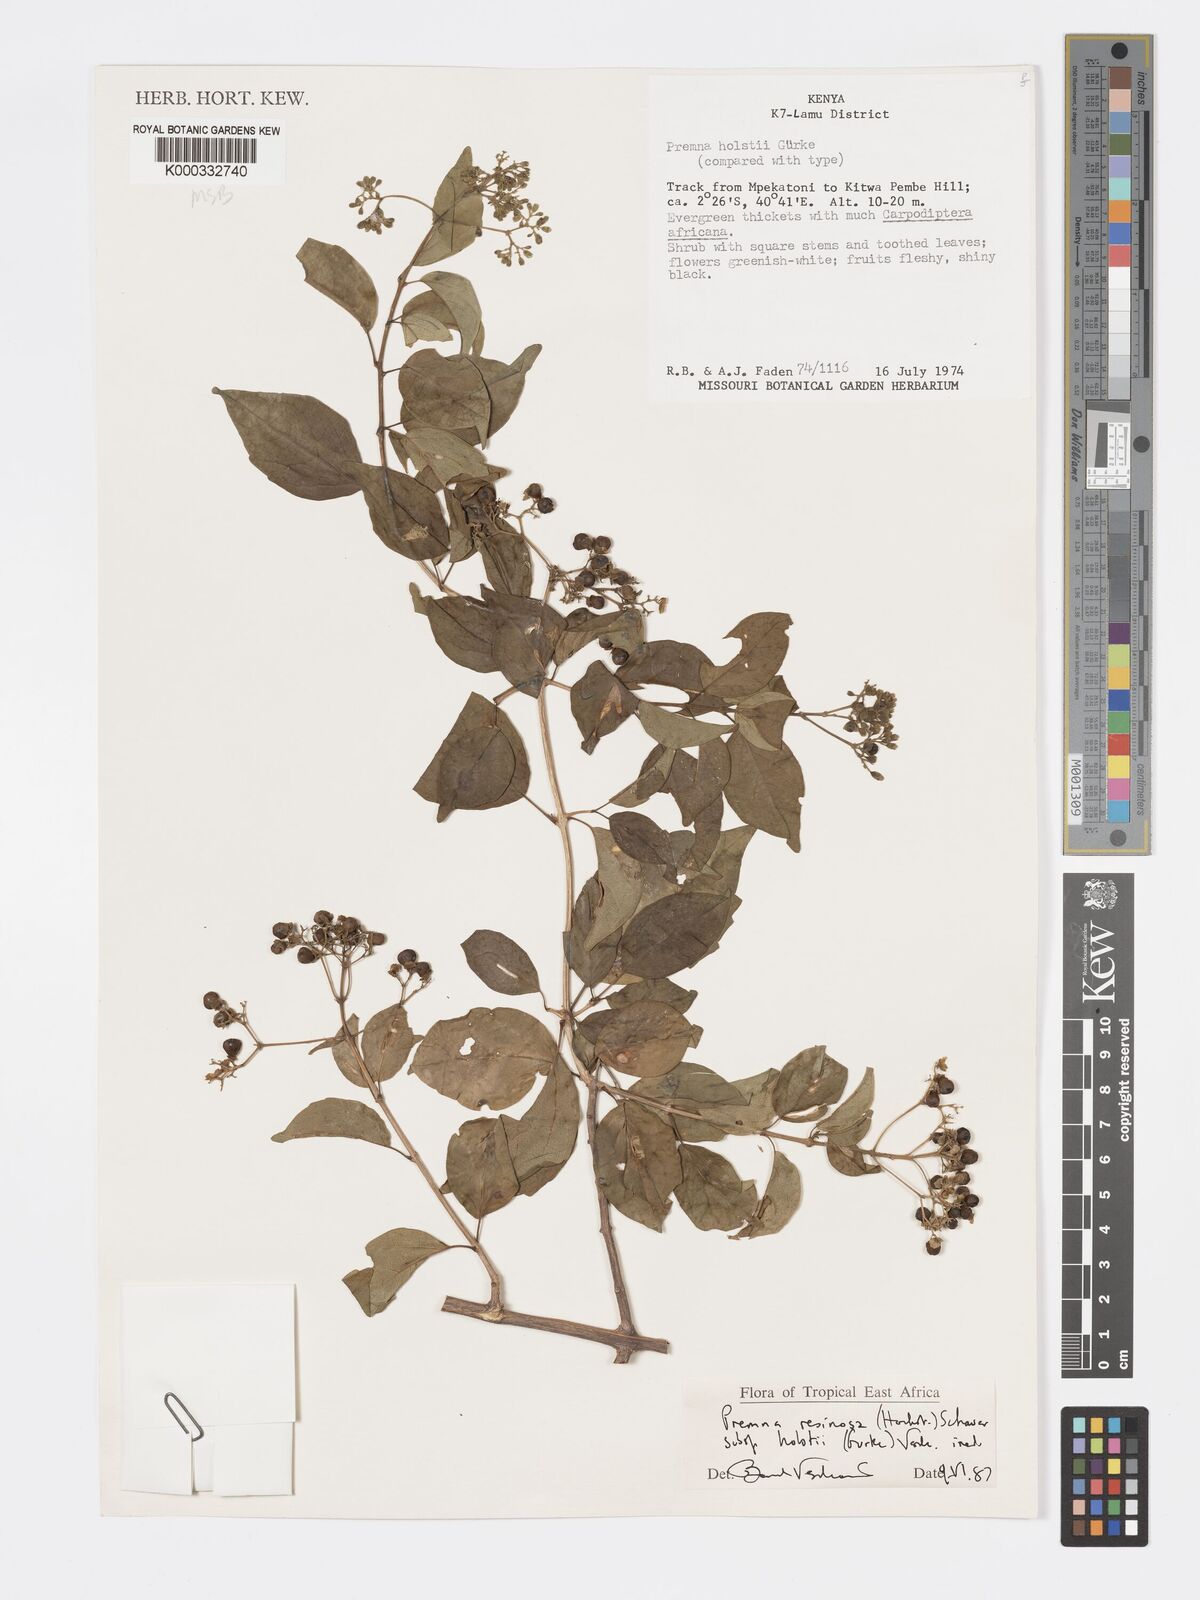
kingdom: Plantae
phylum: Tracheophyta
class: Magnoliopsida
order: Lamiales
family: Lamiaceae
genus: Premna
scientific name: Premna resinosa
